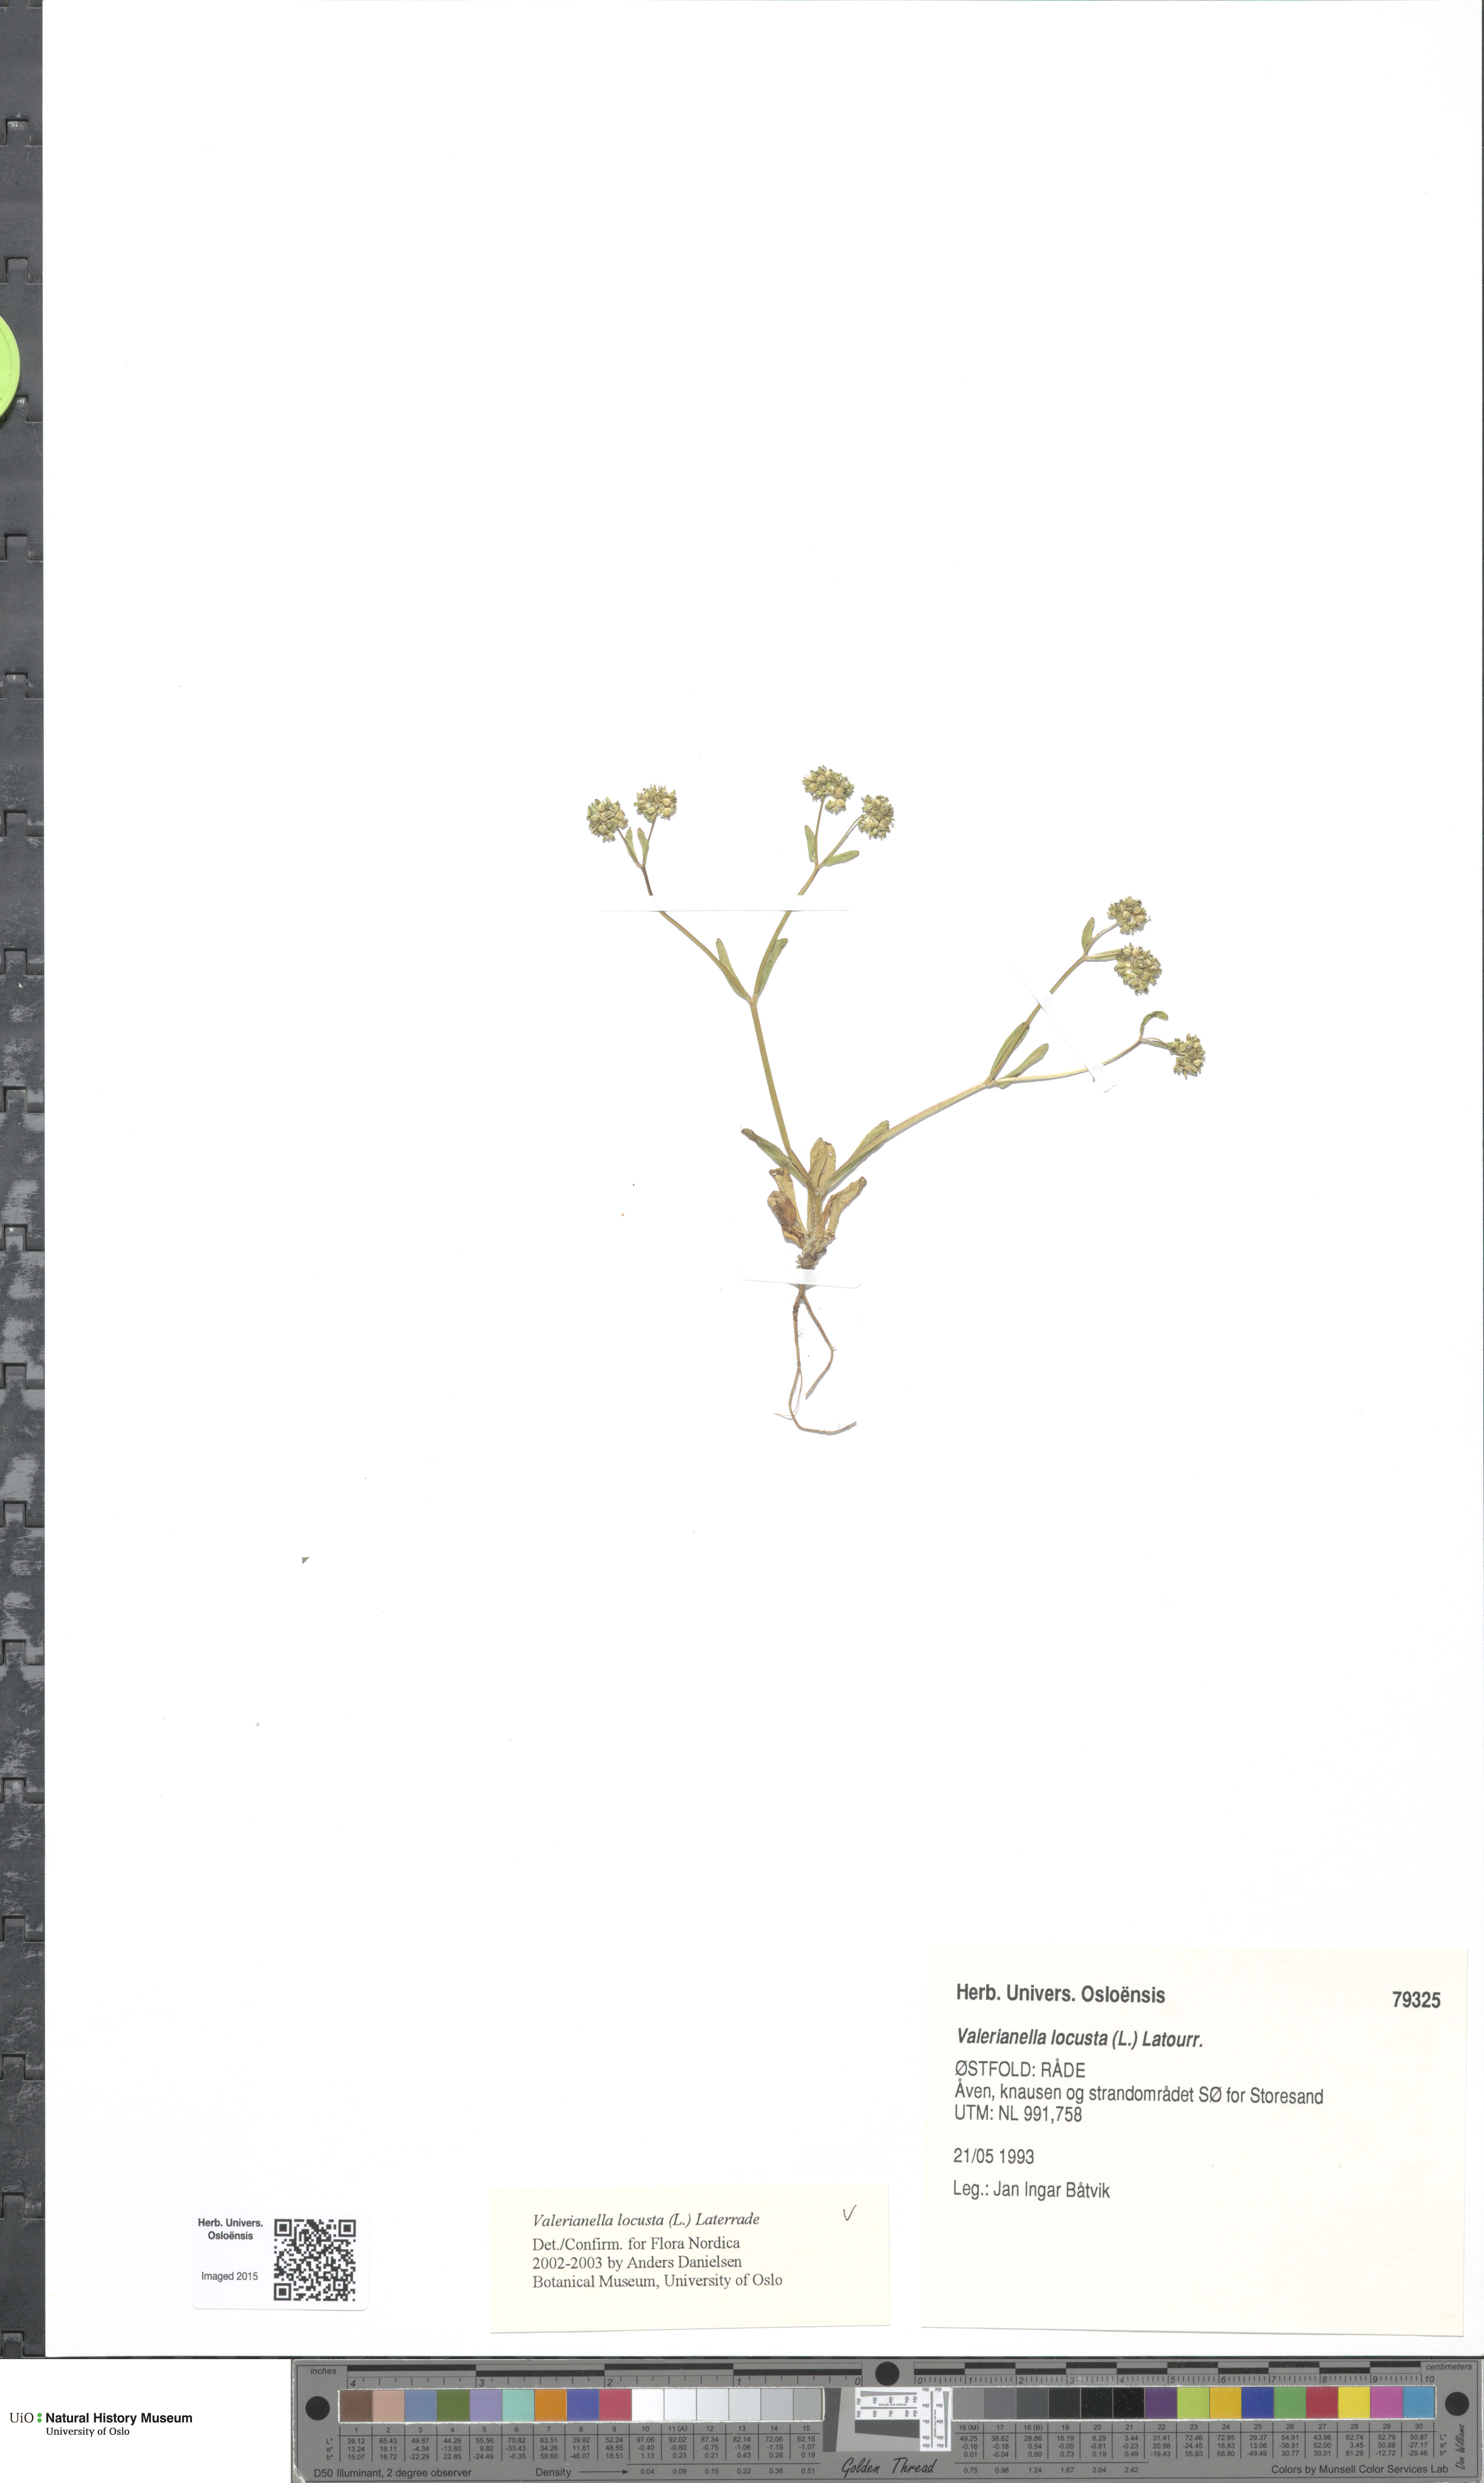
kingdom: Plantae
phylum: Tracheophyta
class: Magnoliopsida
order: Dipsacales
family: Caprifoliaceae
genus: Valerianella
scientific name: Valerianella locusta
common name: Common cornsalad
